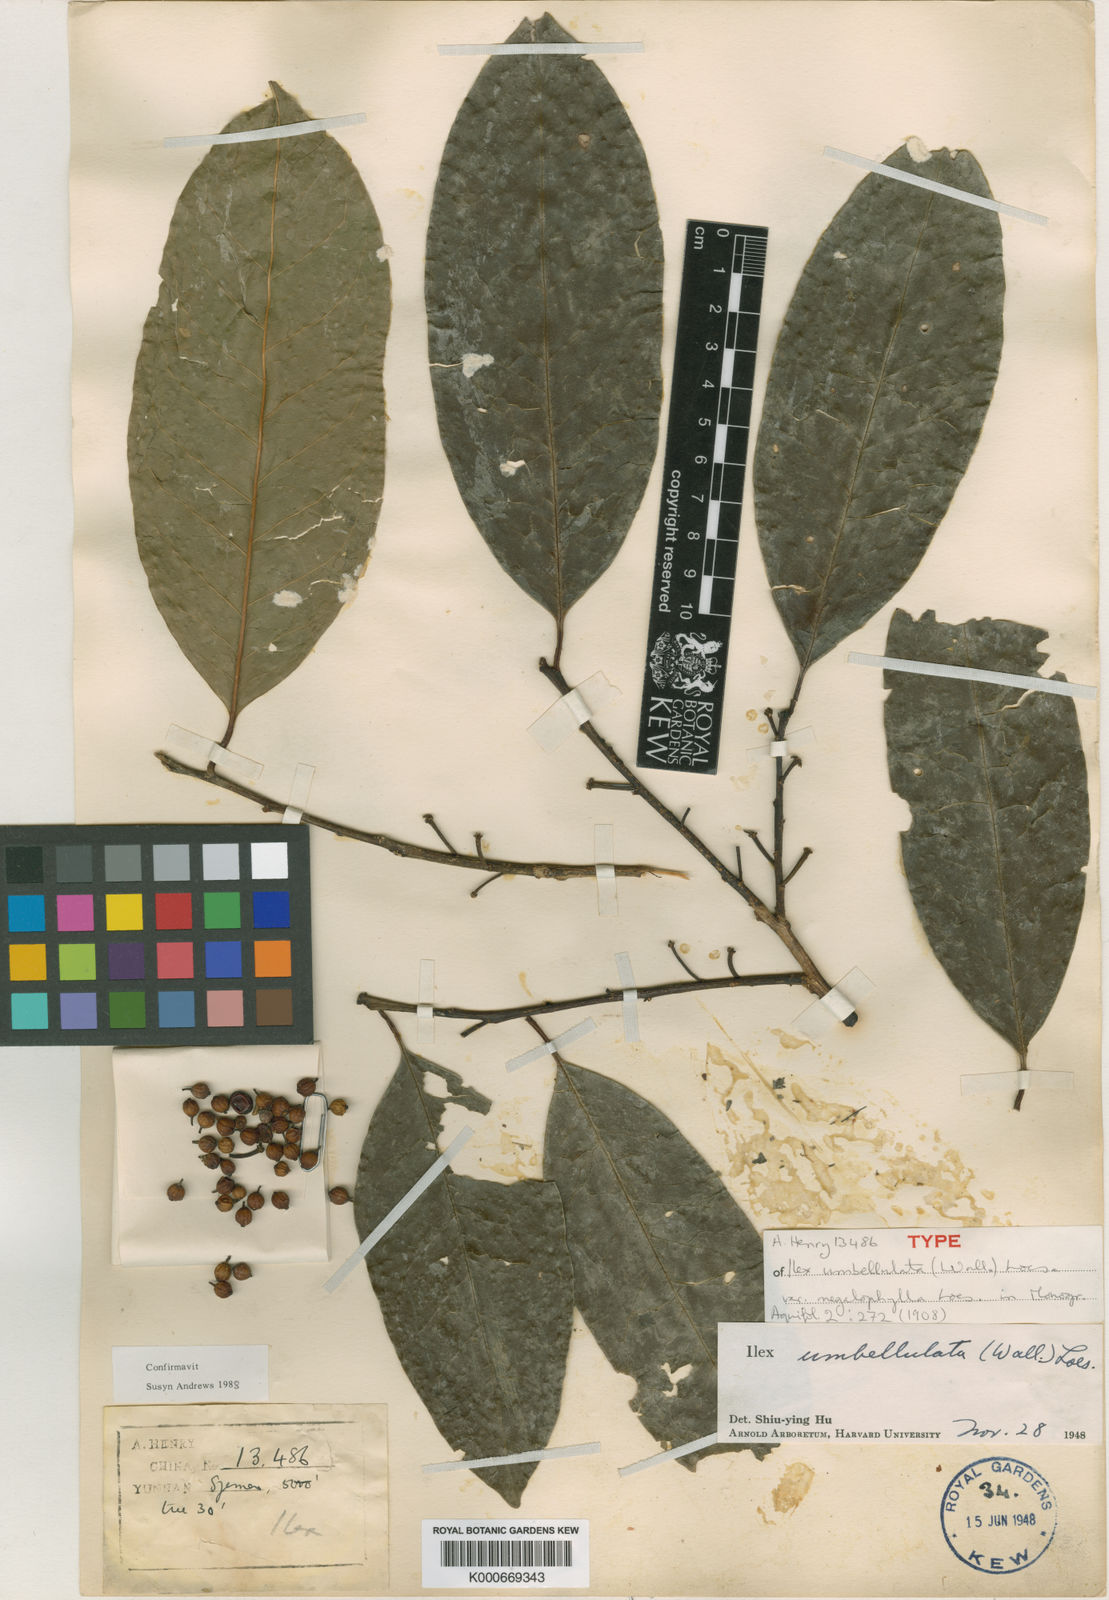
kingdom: Plantae
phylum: Tracheophyta
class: Magnoliopsida
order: Aquifoliales
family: Aquifoliaceae
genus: Ilex
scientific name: Ilex umbellulata
